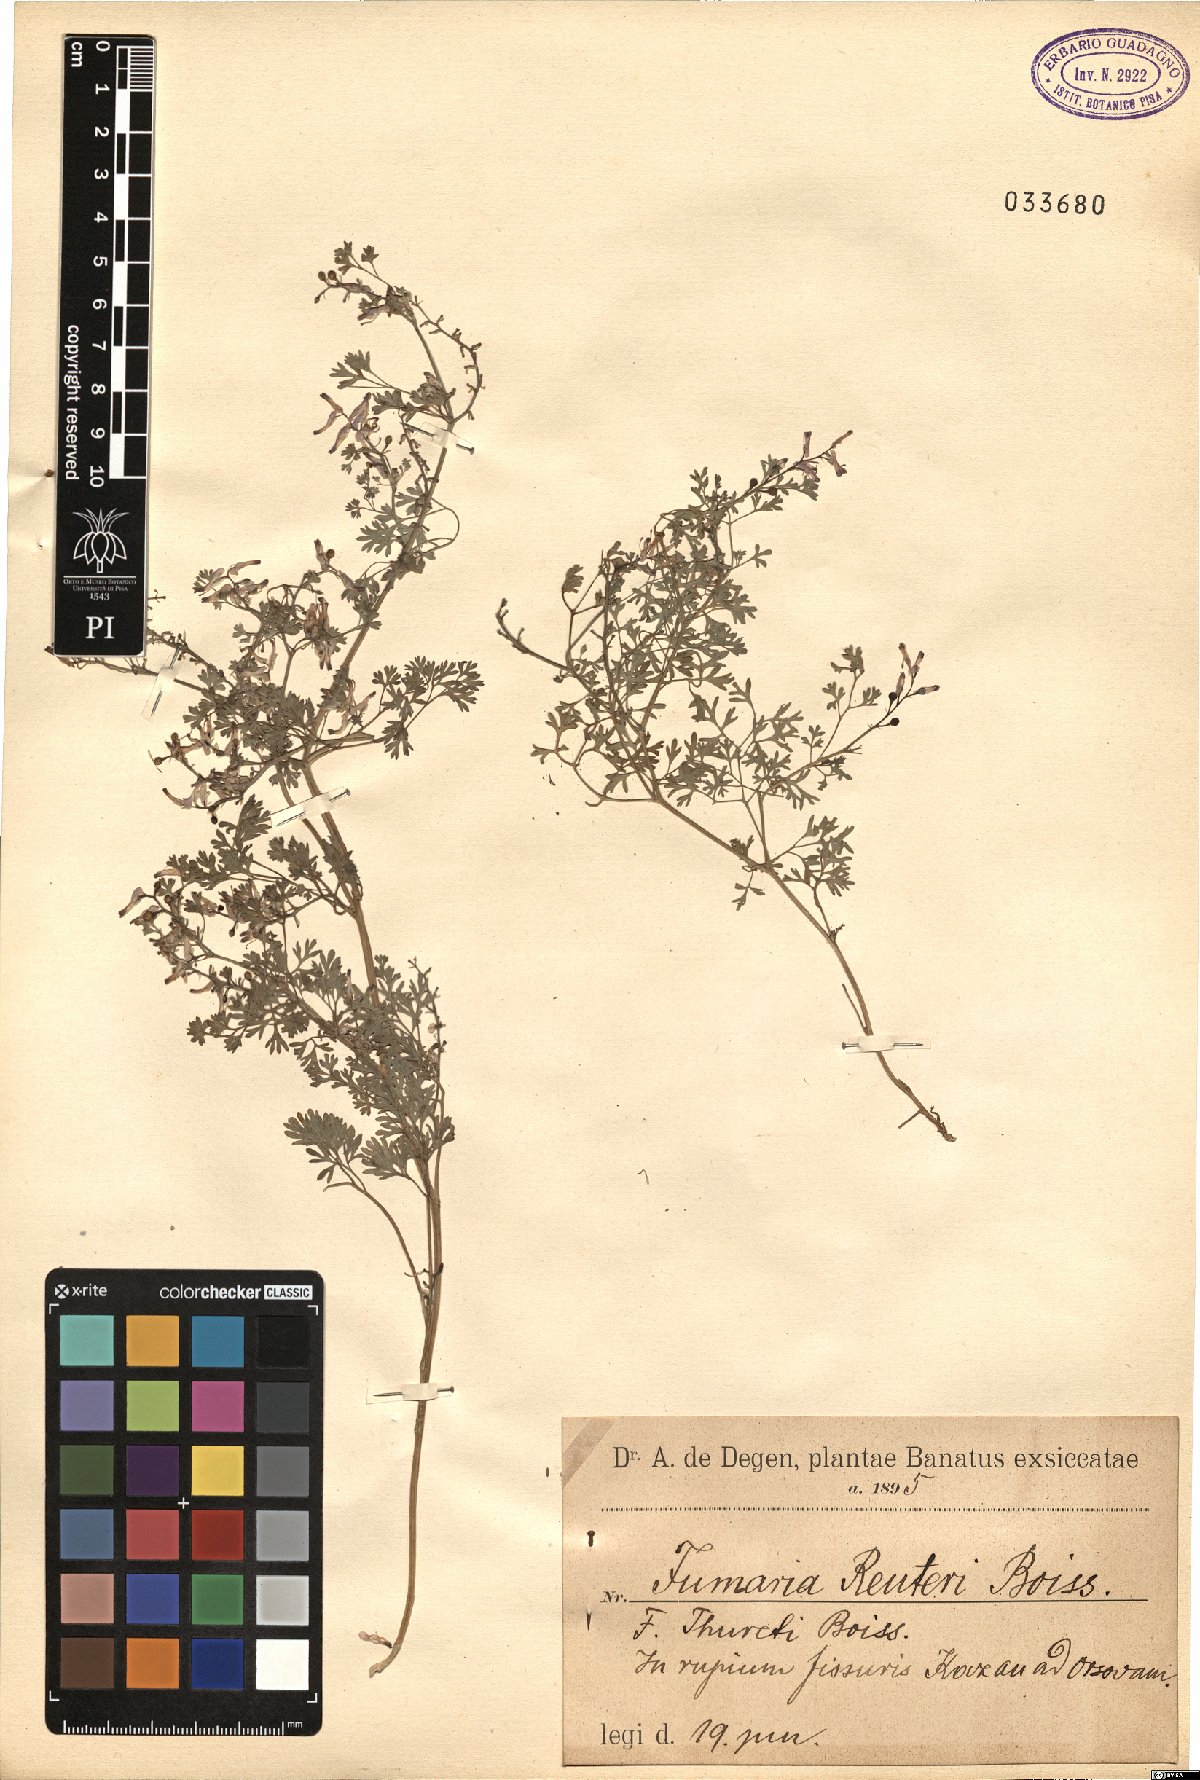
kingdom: Plantae
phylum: Tracheophyta
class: Magnoliopsida
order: Ranunculales
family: Papaveraceae
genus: Fumaria
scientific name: Fumaria reuteri
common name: Martin's ramping-fumitory
